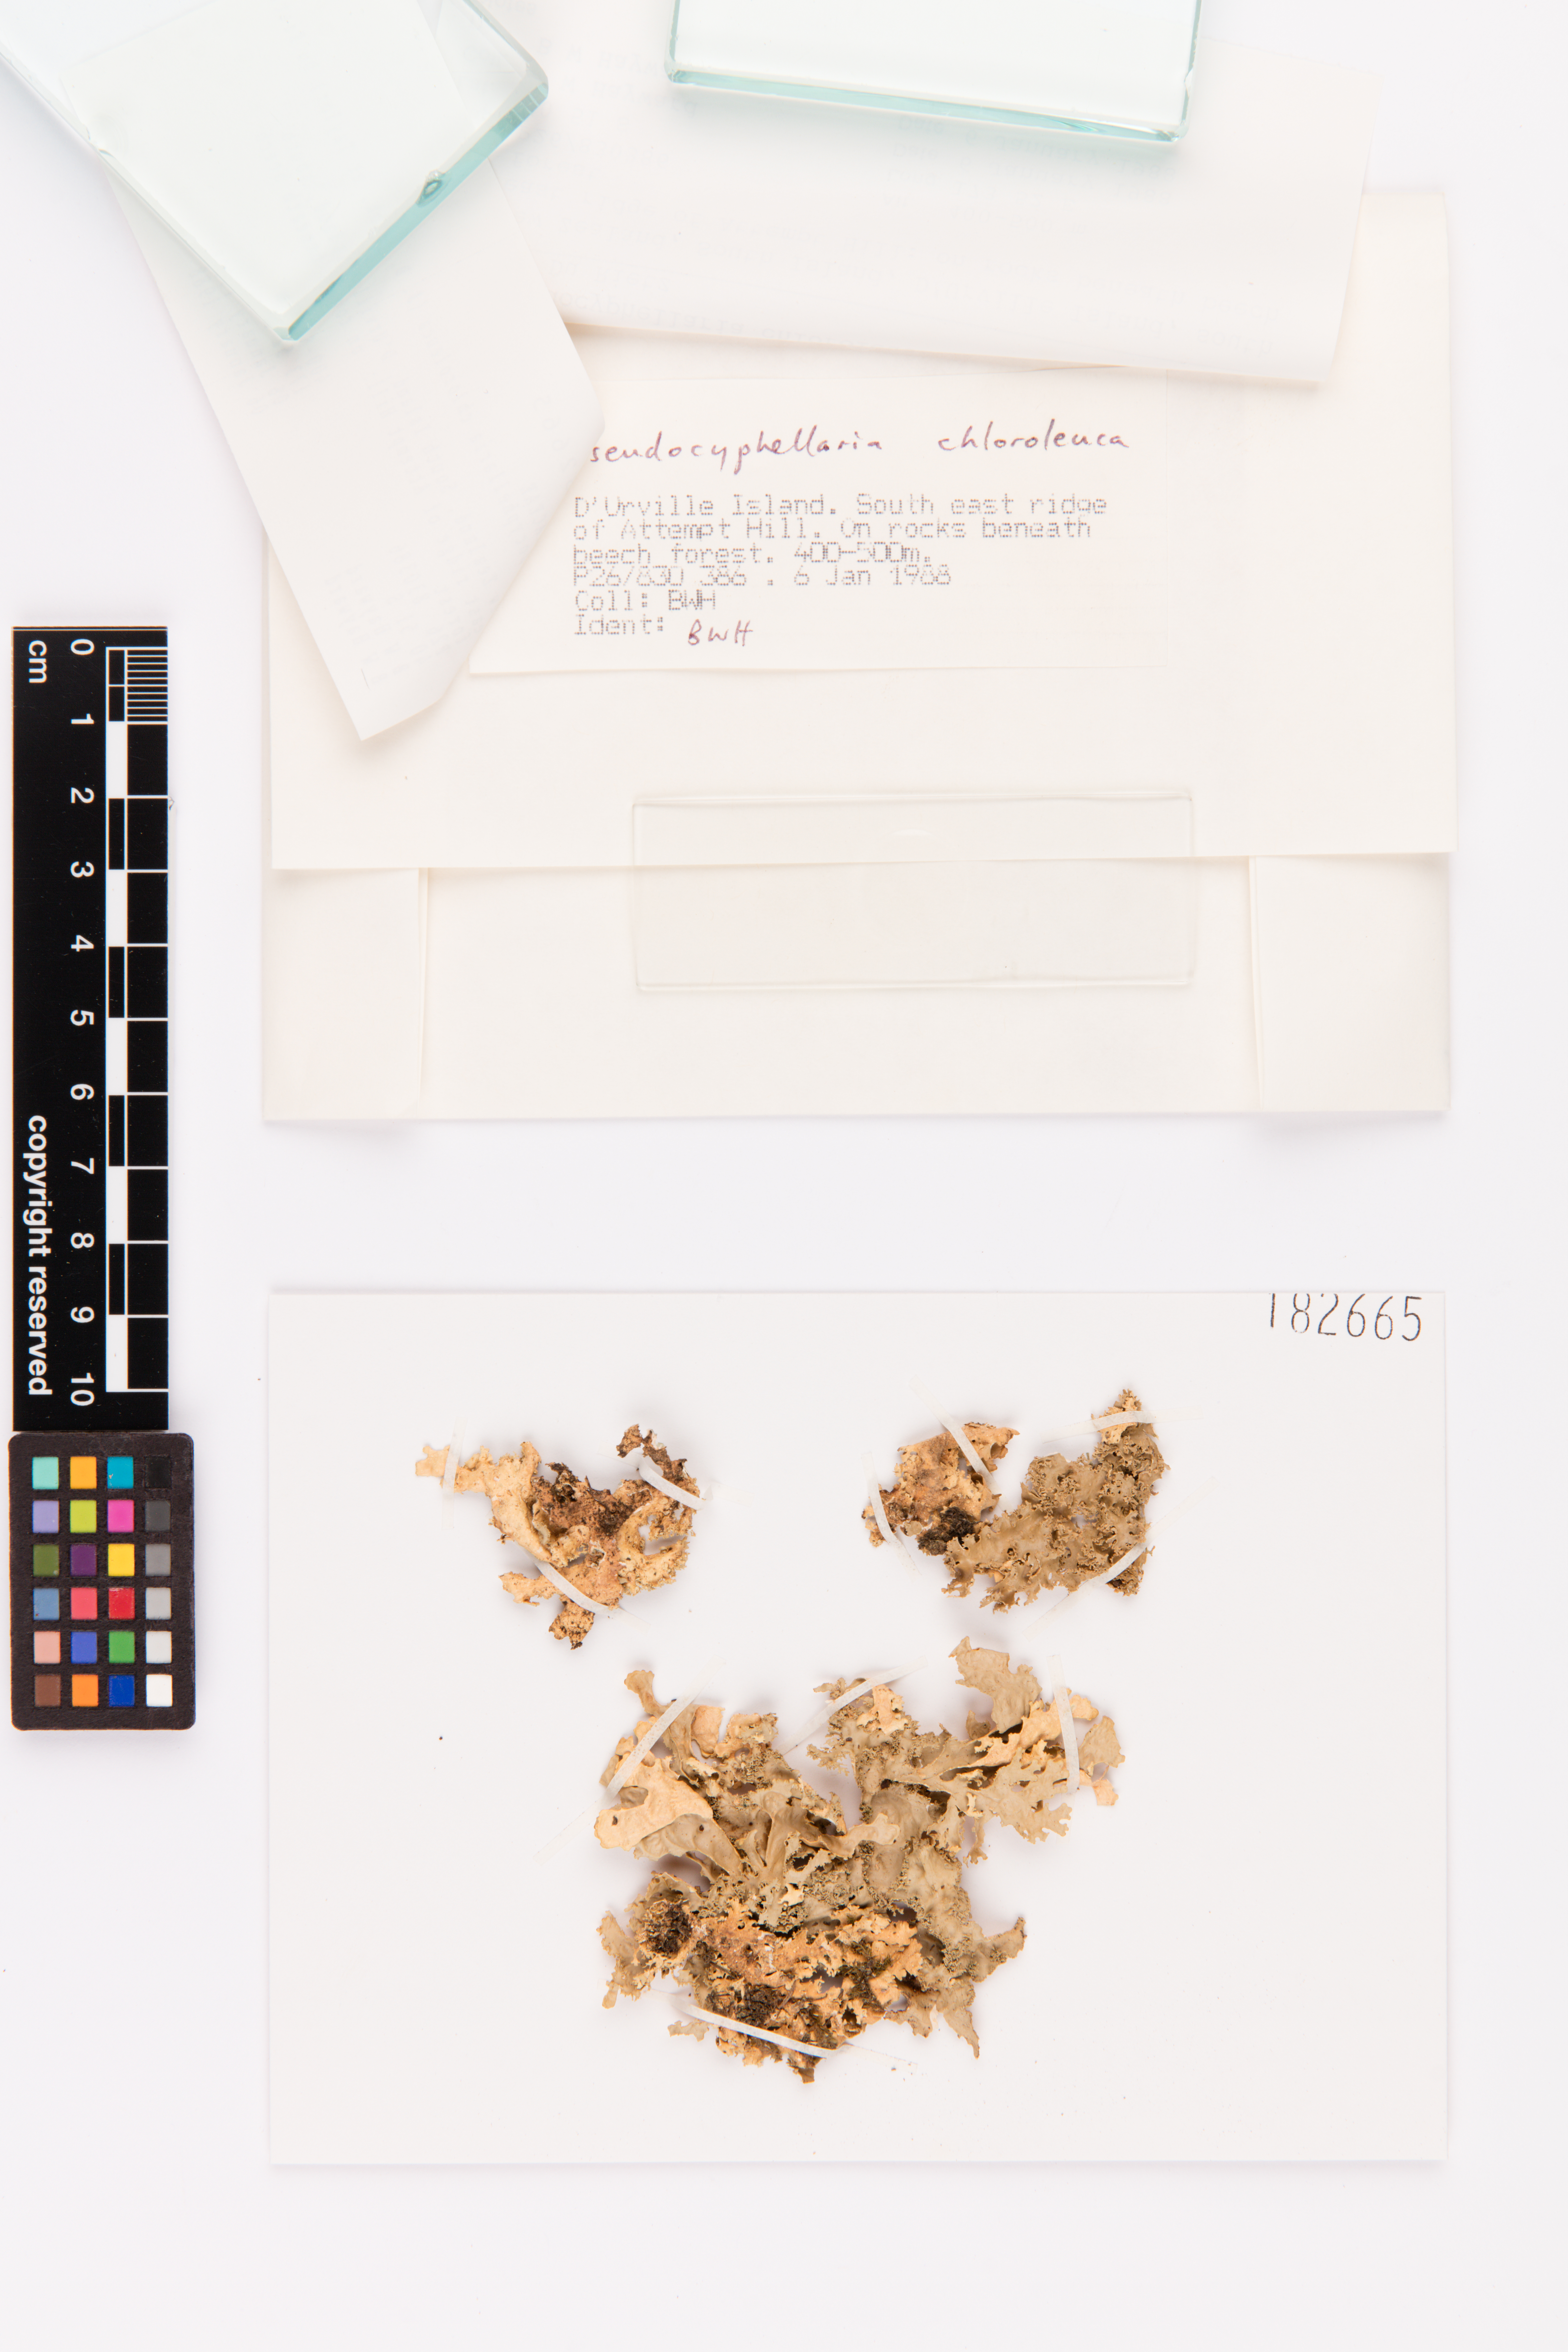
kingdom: Fungi
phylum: Ascomycota
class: Lecanoromycetes
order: Peltigerales
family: Lobariaceae
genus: Pseudocyphellaria
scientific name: Pseudocyphellaria chloroleuca
